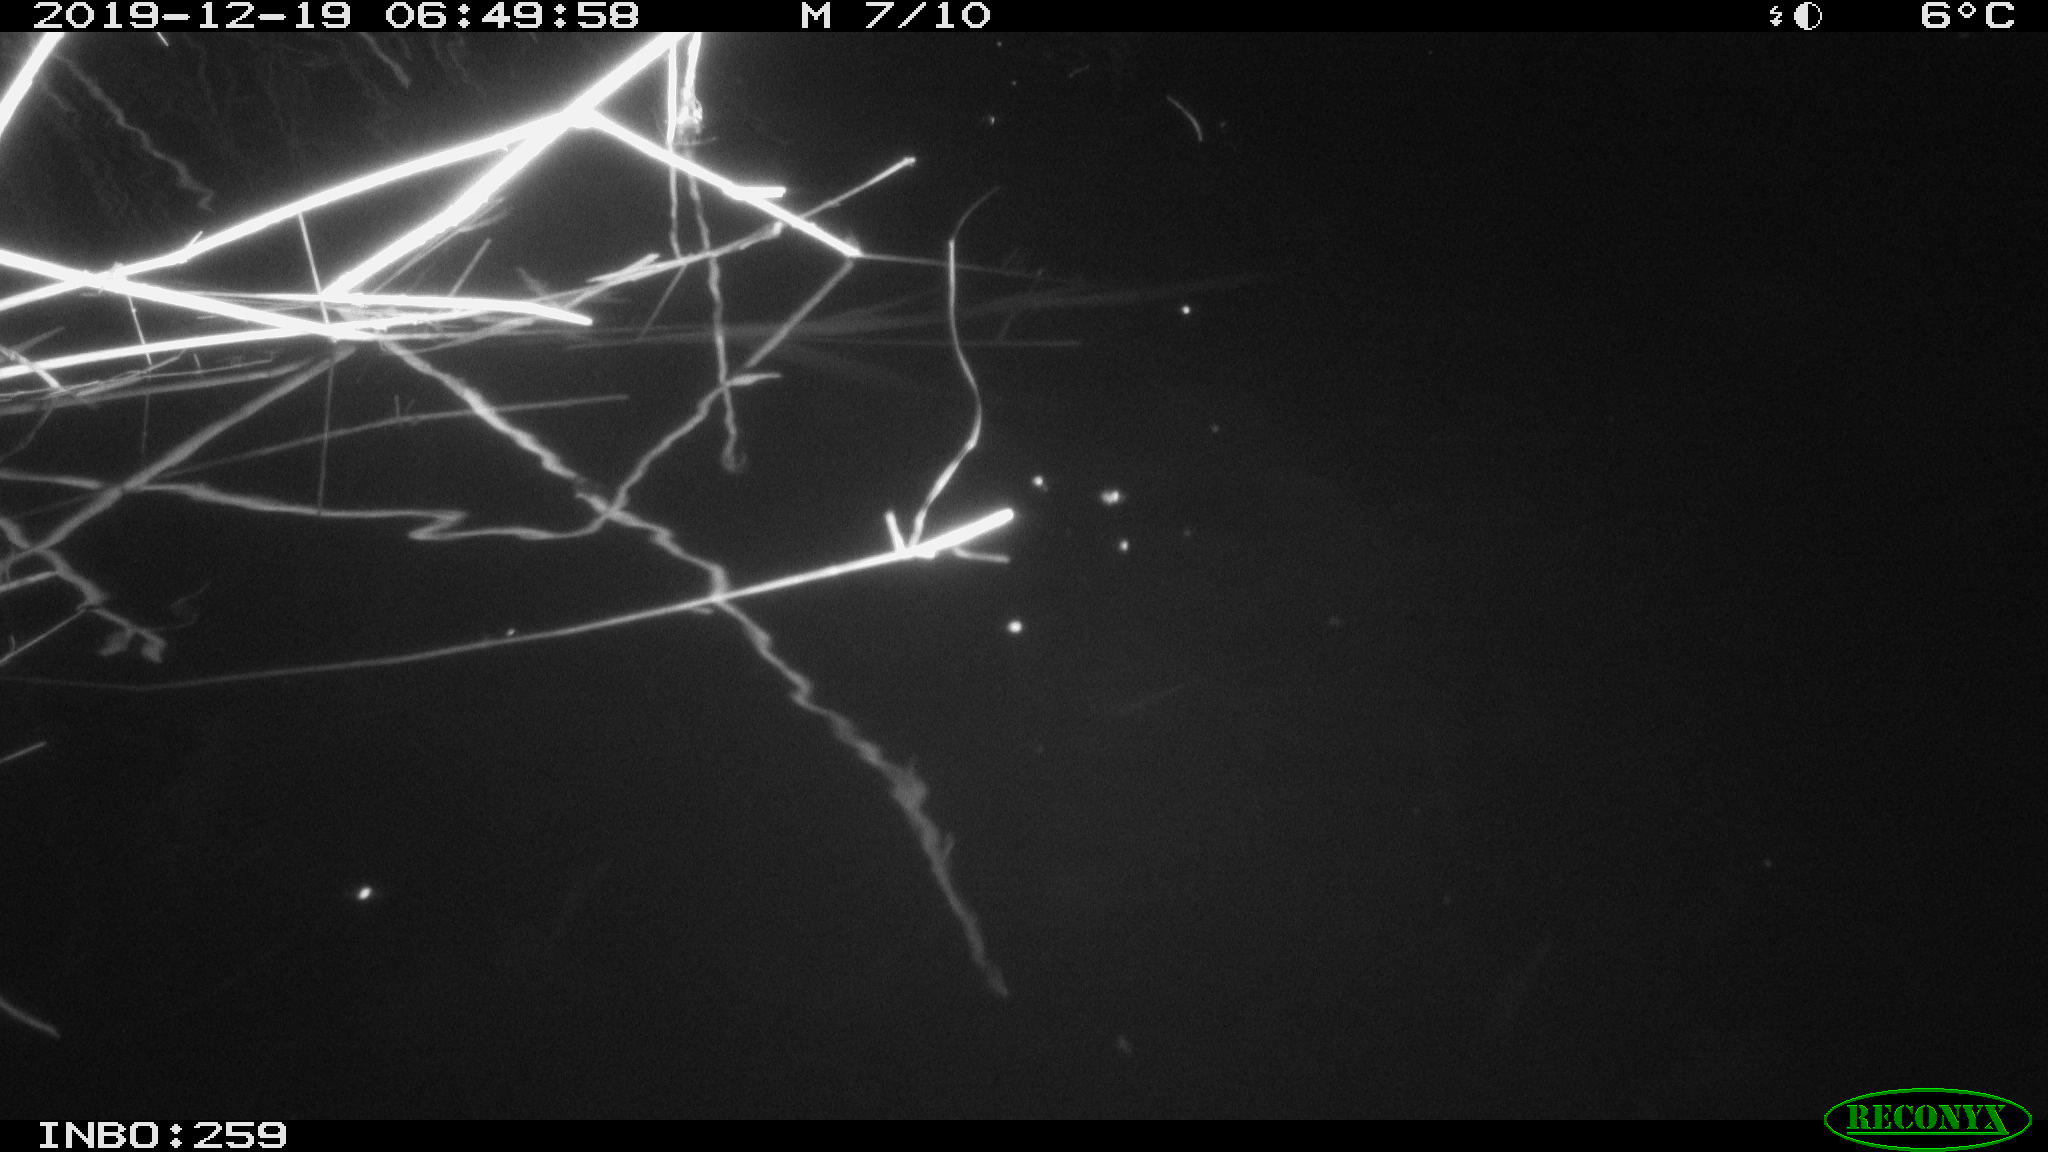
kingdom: Animalia
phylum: Chordata
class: Aves
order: Gruiformes
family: Rallidae
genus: Gallinula
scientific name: Gallinula chloropus
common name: Common moorhen
